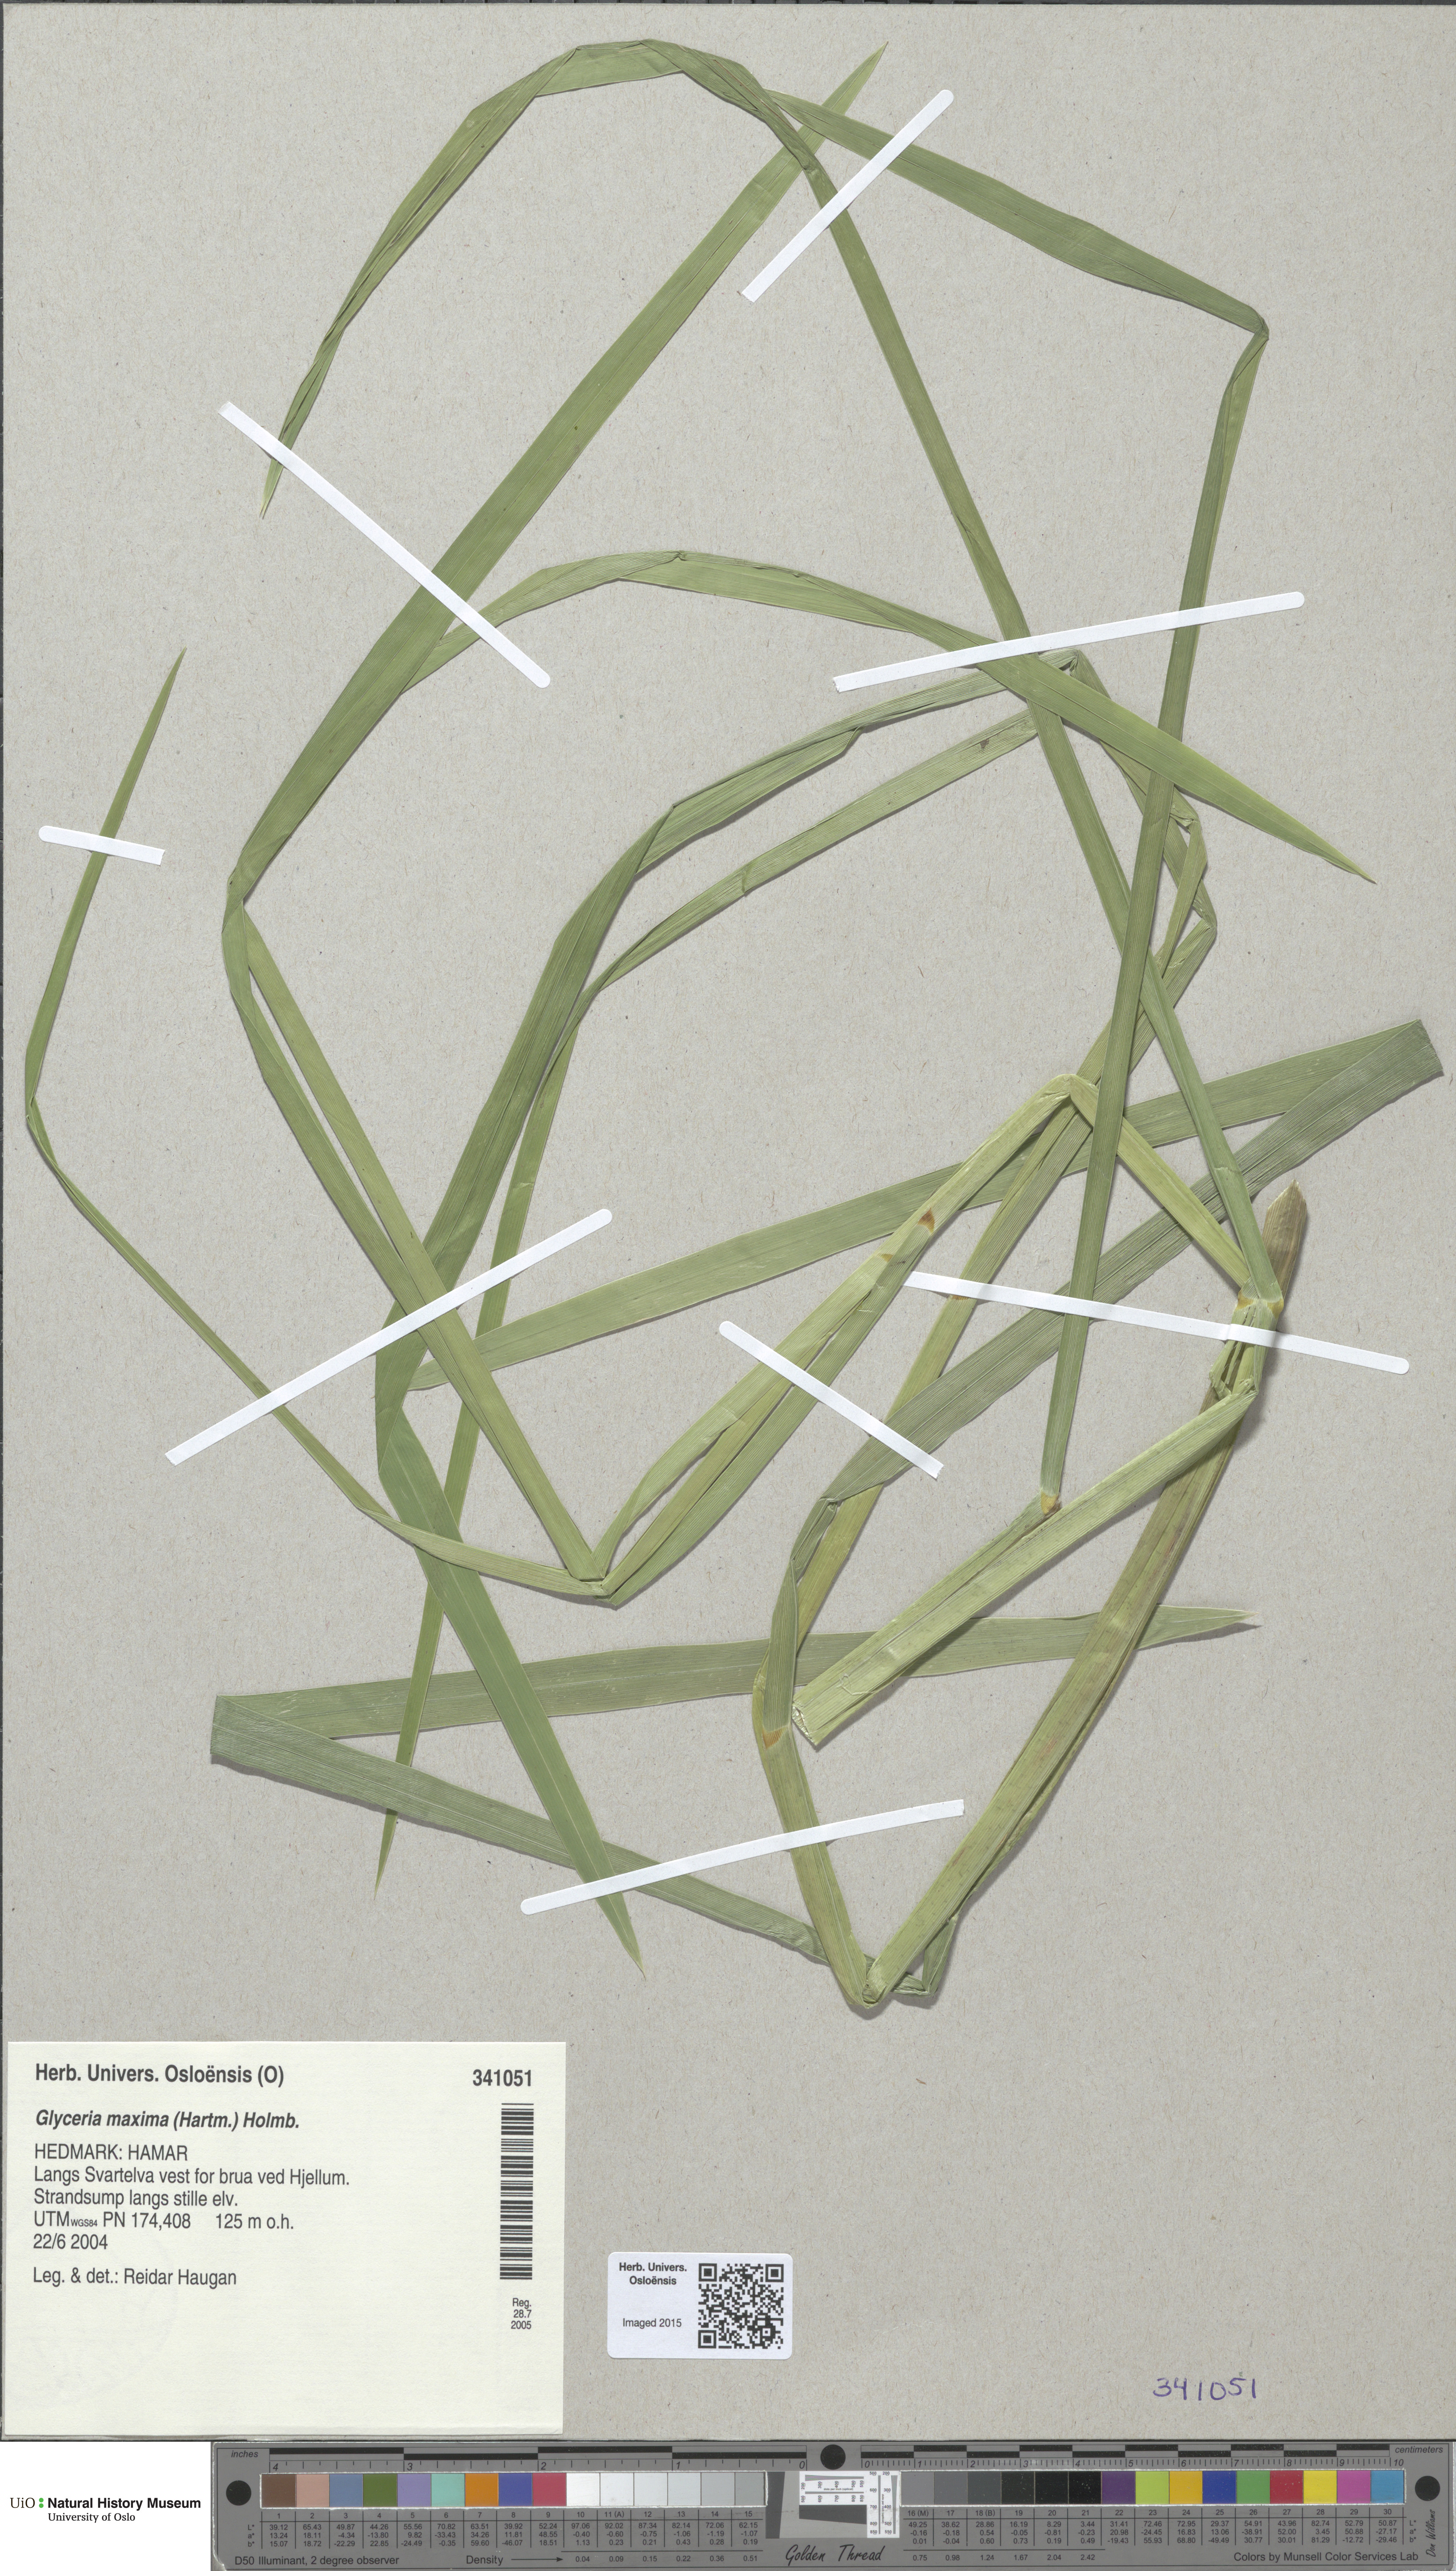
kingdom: Plantae
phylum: Tracheophyta
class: Liliopsida
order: Poales
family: Poaceae
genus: Glyceria
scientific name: Glyceria maxima
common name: Reed mannagrass
